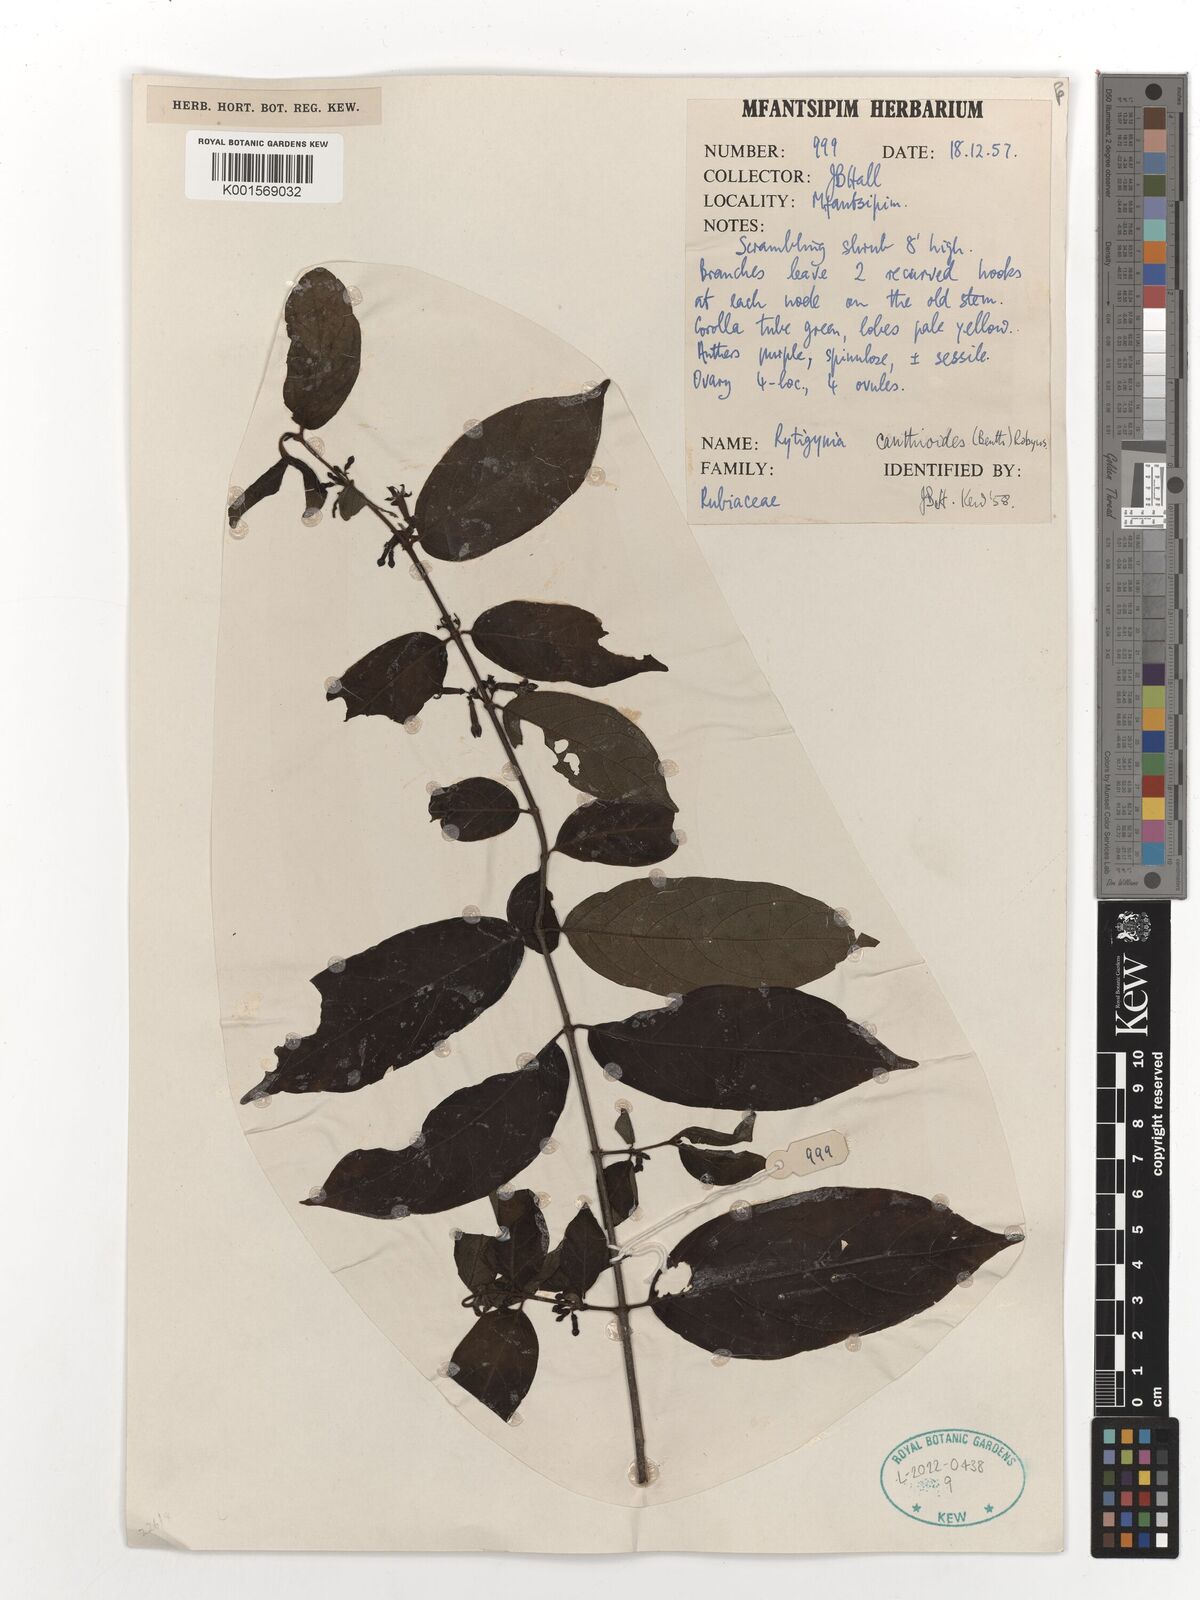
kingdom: Plantae
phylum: Tracheophyta
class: Magnoliopsida
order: Gentianales
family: Rubiaceae
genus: Rytigynia
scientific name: Rytigynia canthioides
